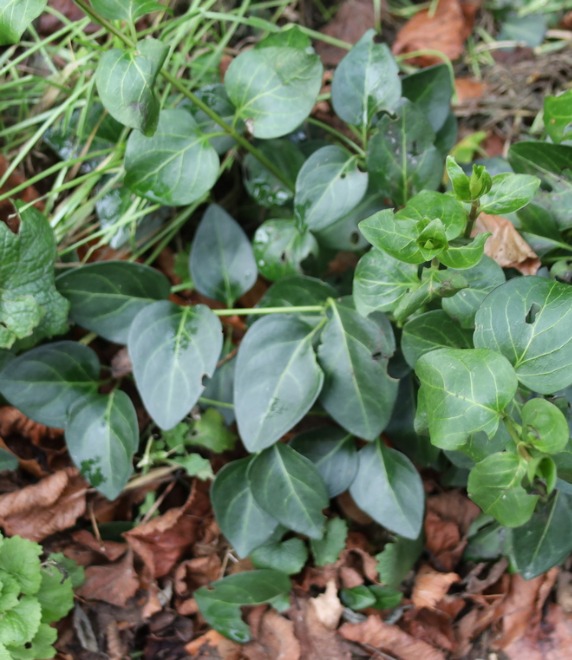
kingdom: Plantae
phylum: Tracheophyta
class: Magnoliopsida
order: Gentianales
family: Apocynaceae
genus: Vinca
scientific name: Vinca major
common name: Stor singrøn
